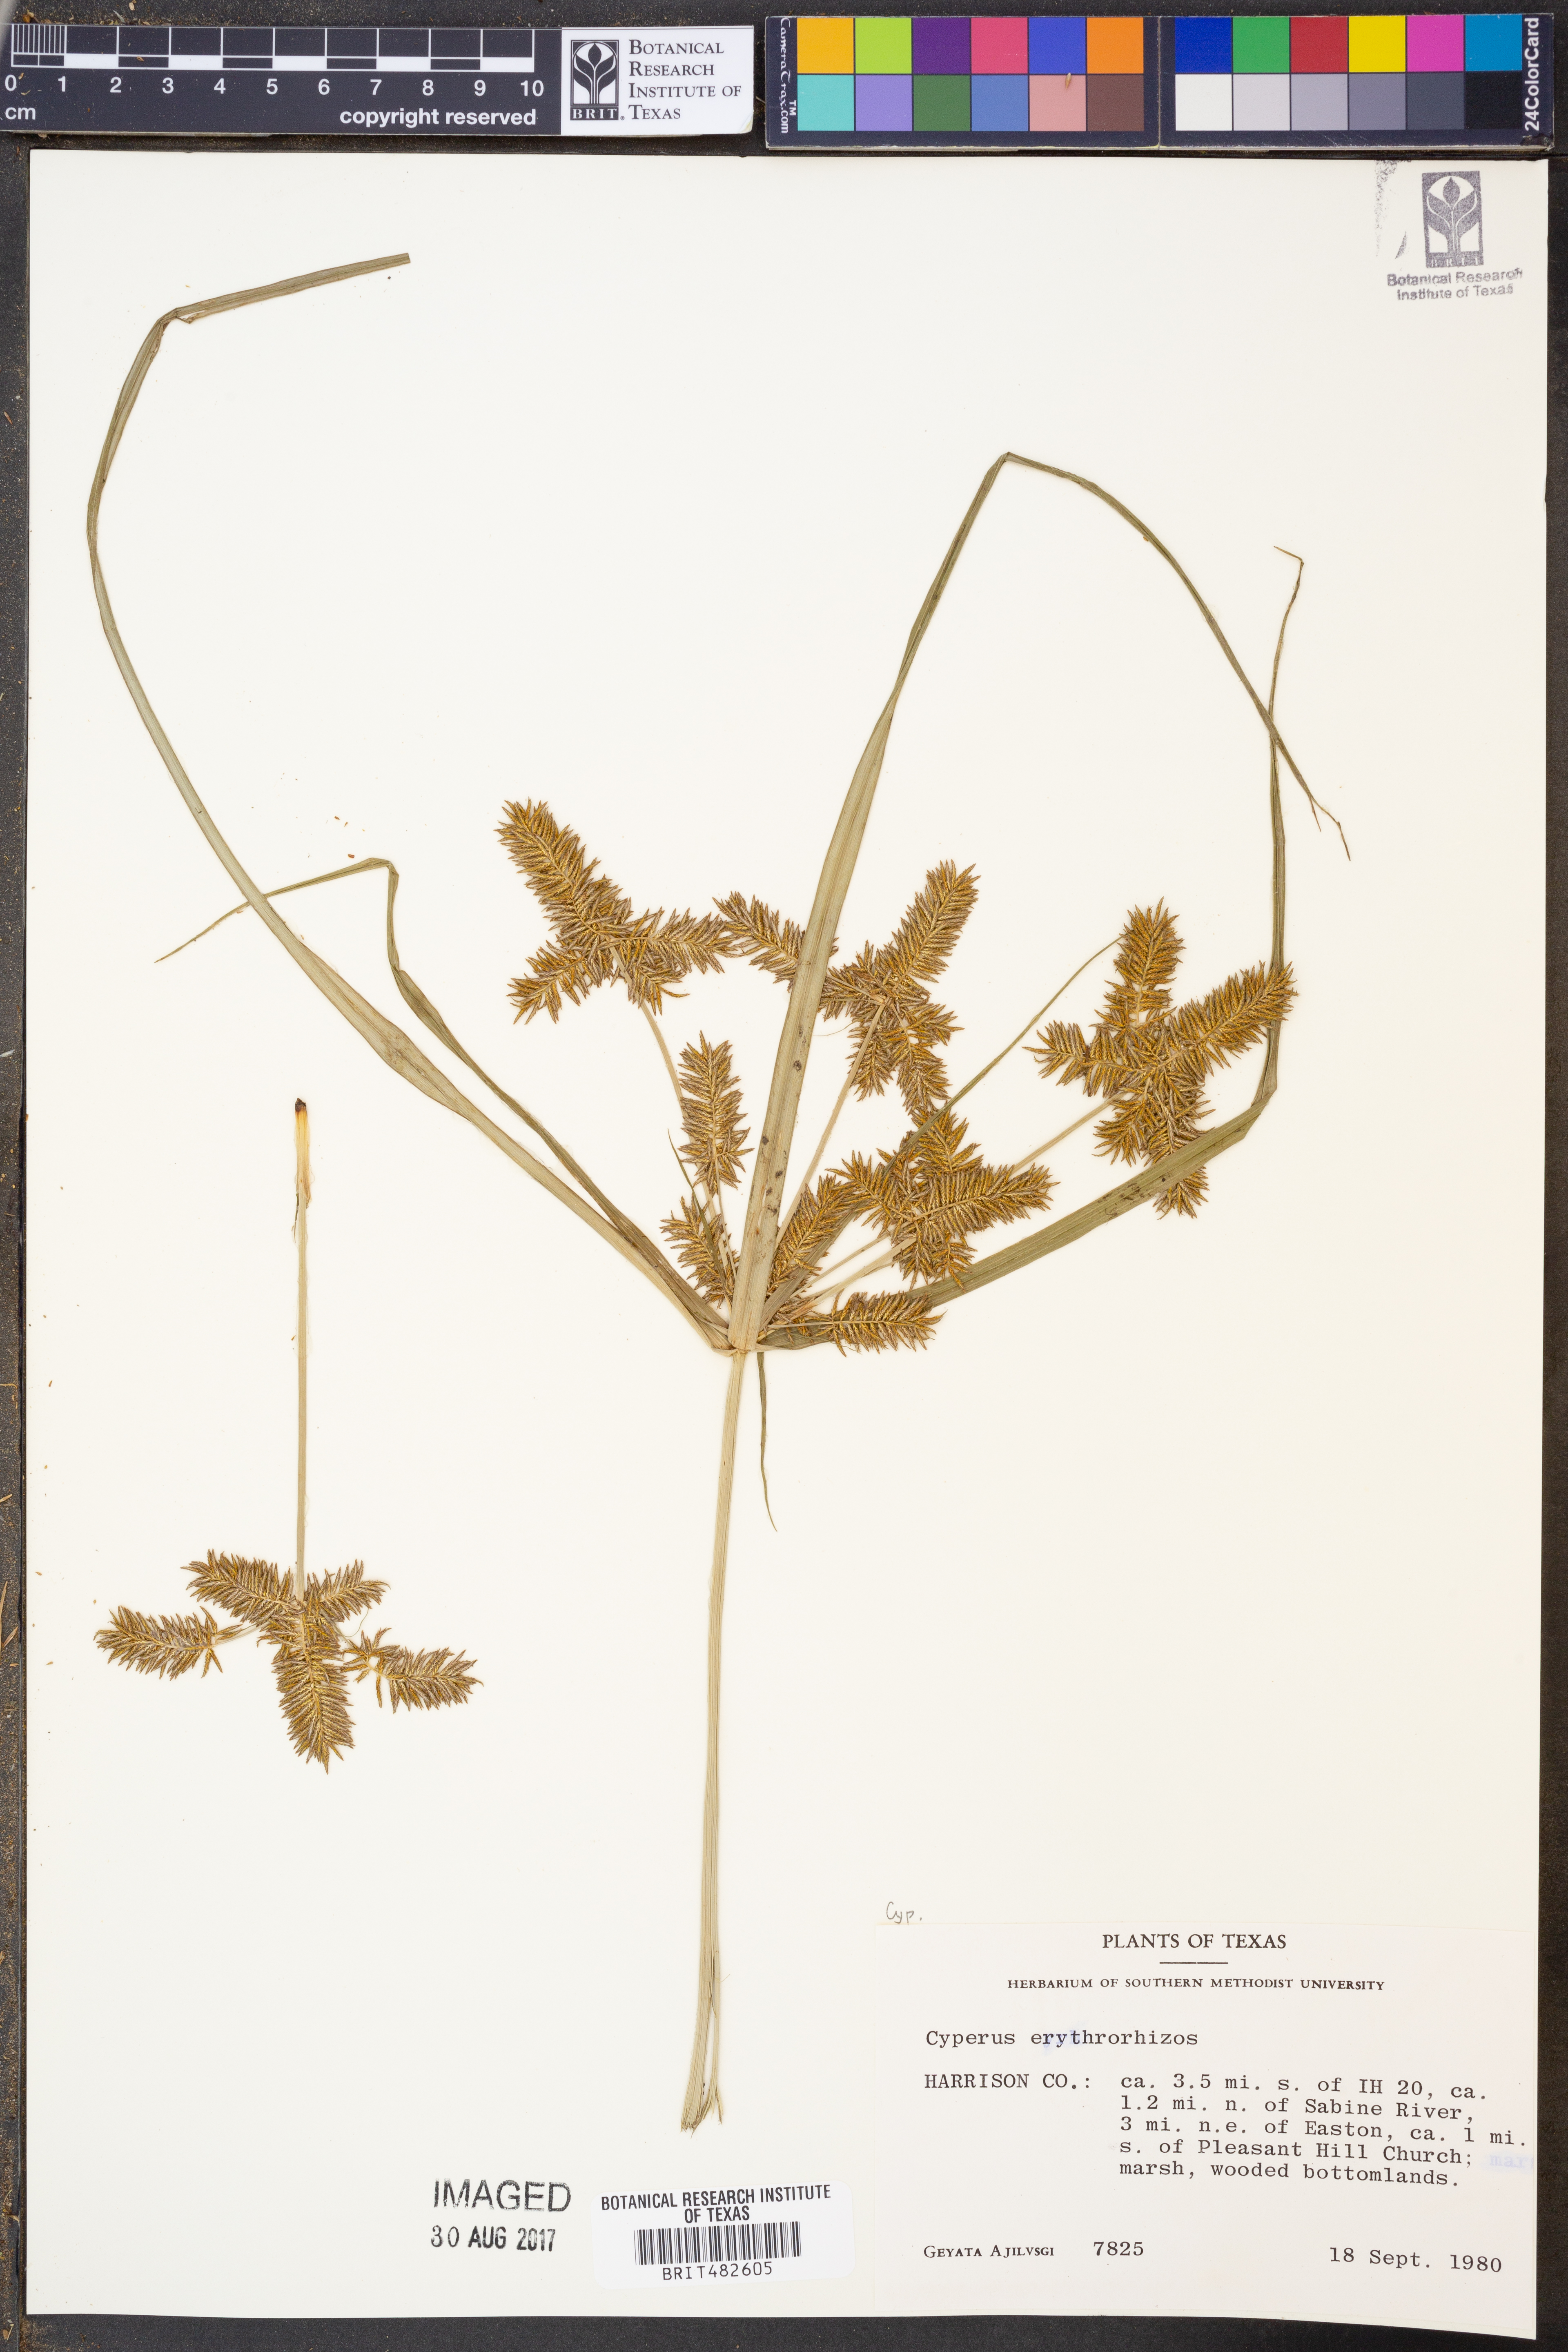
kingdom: Plantae
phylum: Tracheophyta
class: Liliopsida
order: Poales
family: Cyperaceae
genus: Cyperus
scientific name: Cyperus erythrorhizos
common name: Red-root flat sedge
